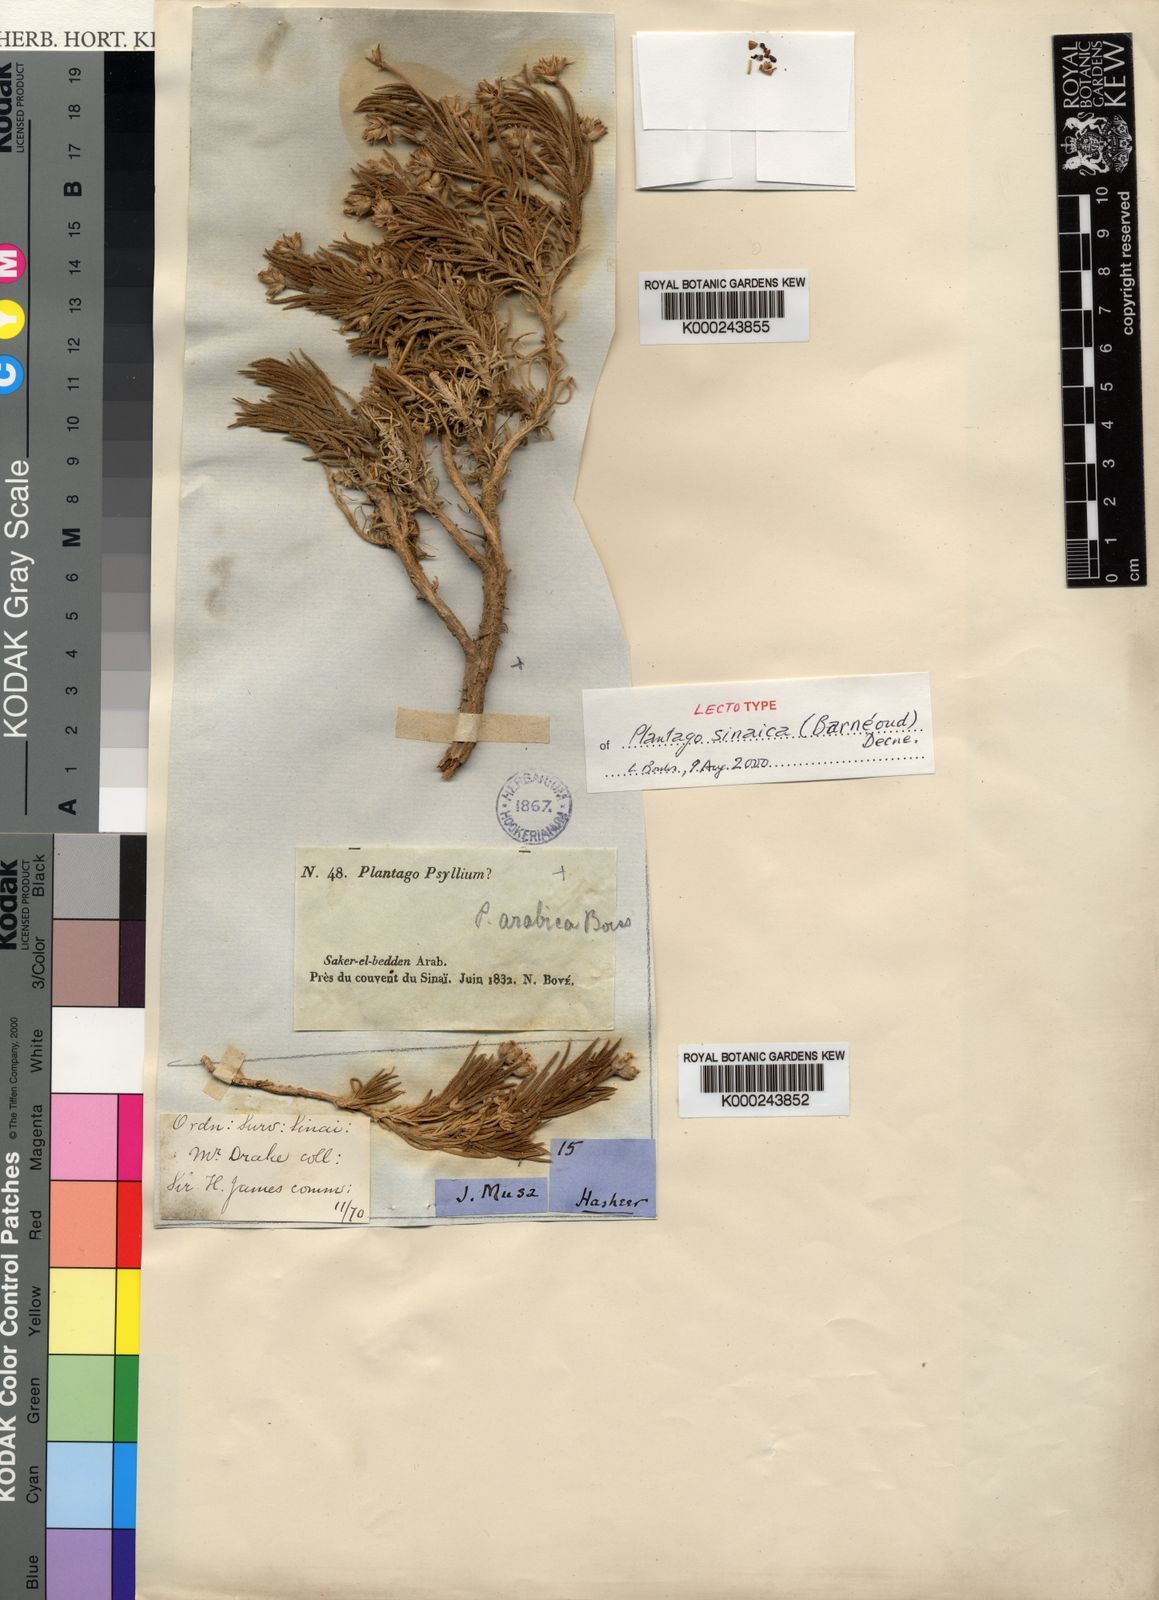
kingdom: Plantae
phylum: Tracheophyta
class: Magnoliopsida
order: Lamiales
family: Plantaginaceae
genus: Plantago
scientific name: Plantago sinaica
